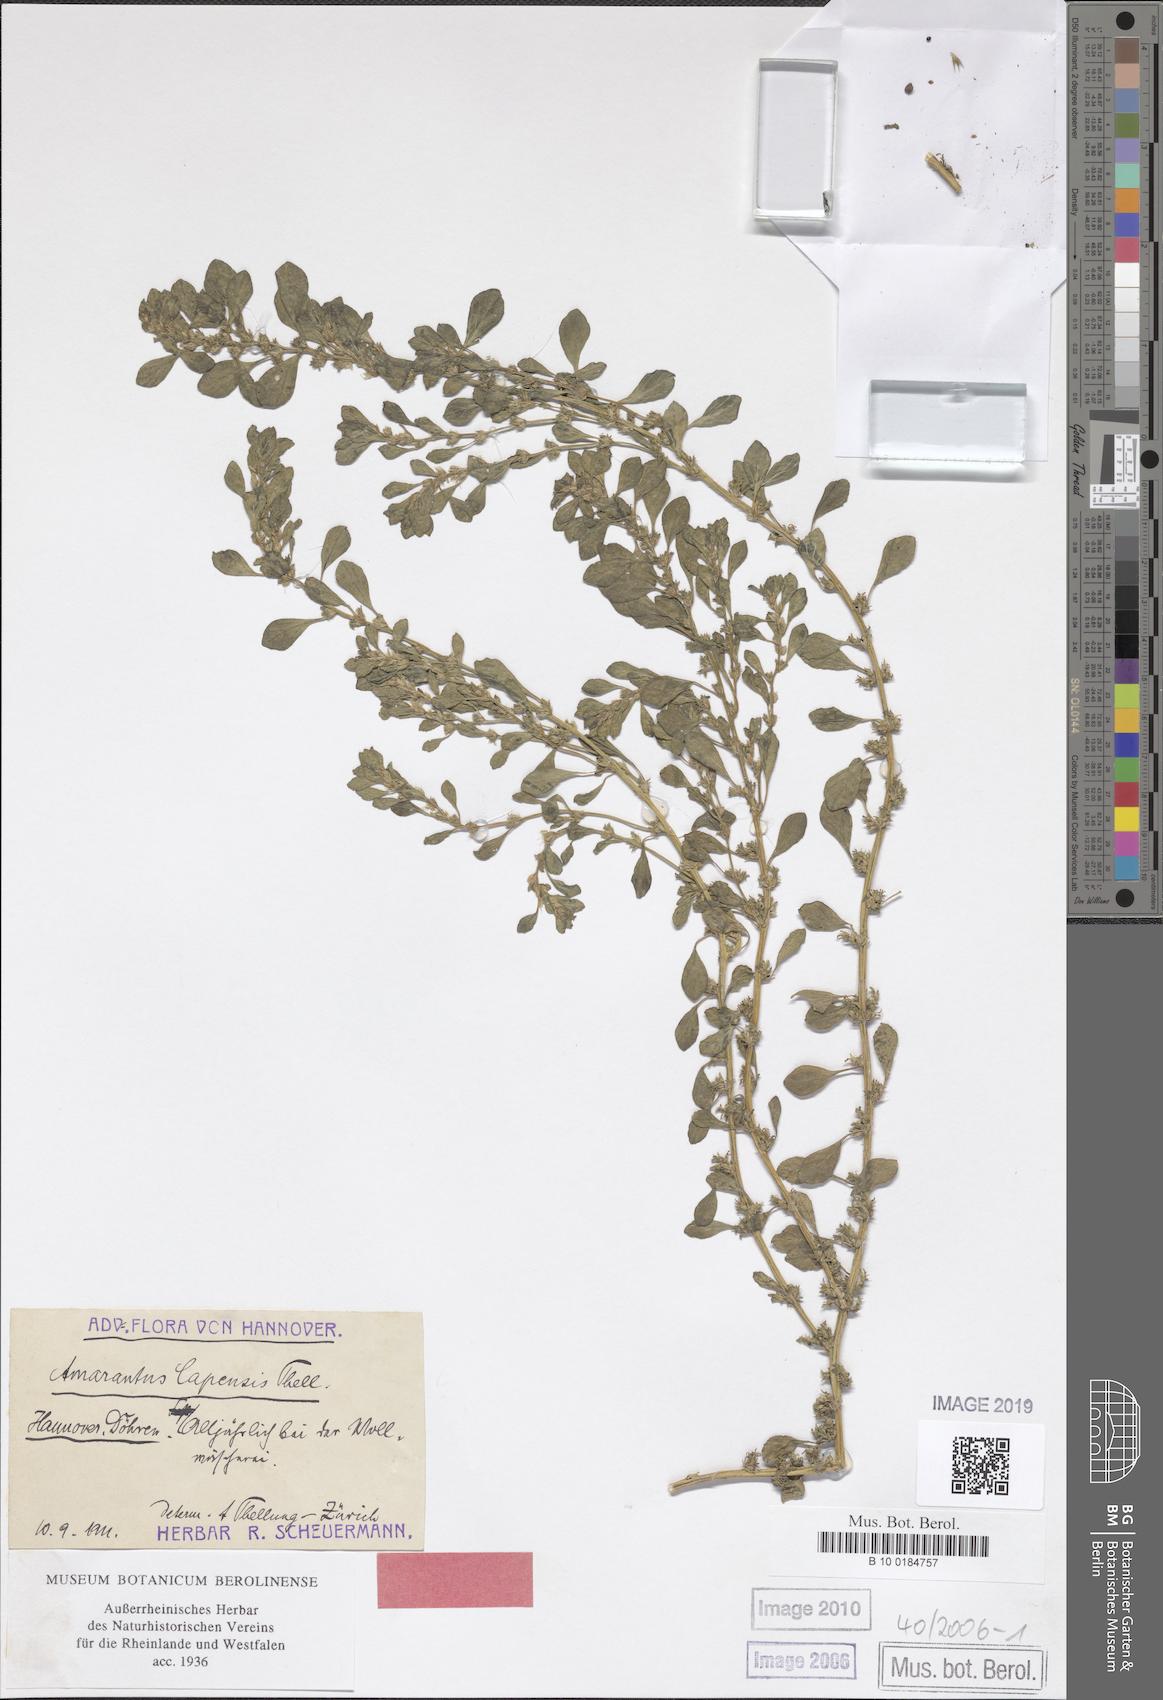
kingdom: Plantae
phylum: Tracheophyta
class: Magnoliopsida
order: Caryophyllales
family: Amaranthaceae
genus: Amaranthus
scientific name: Amaranthus capensis
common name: Cape pigweed
